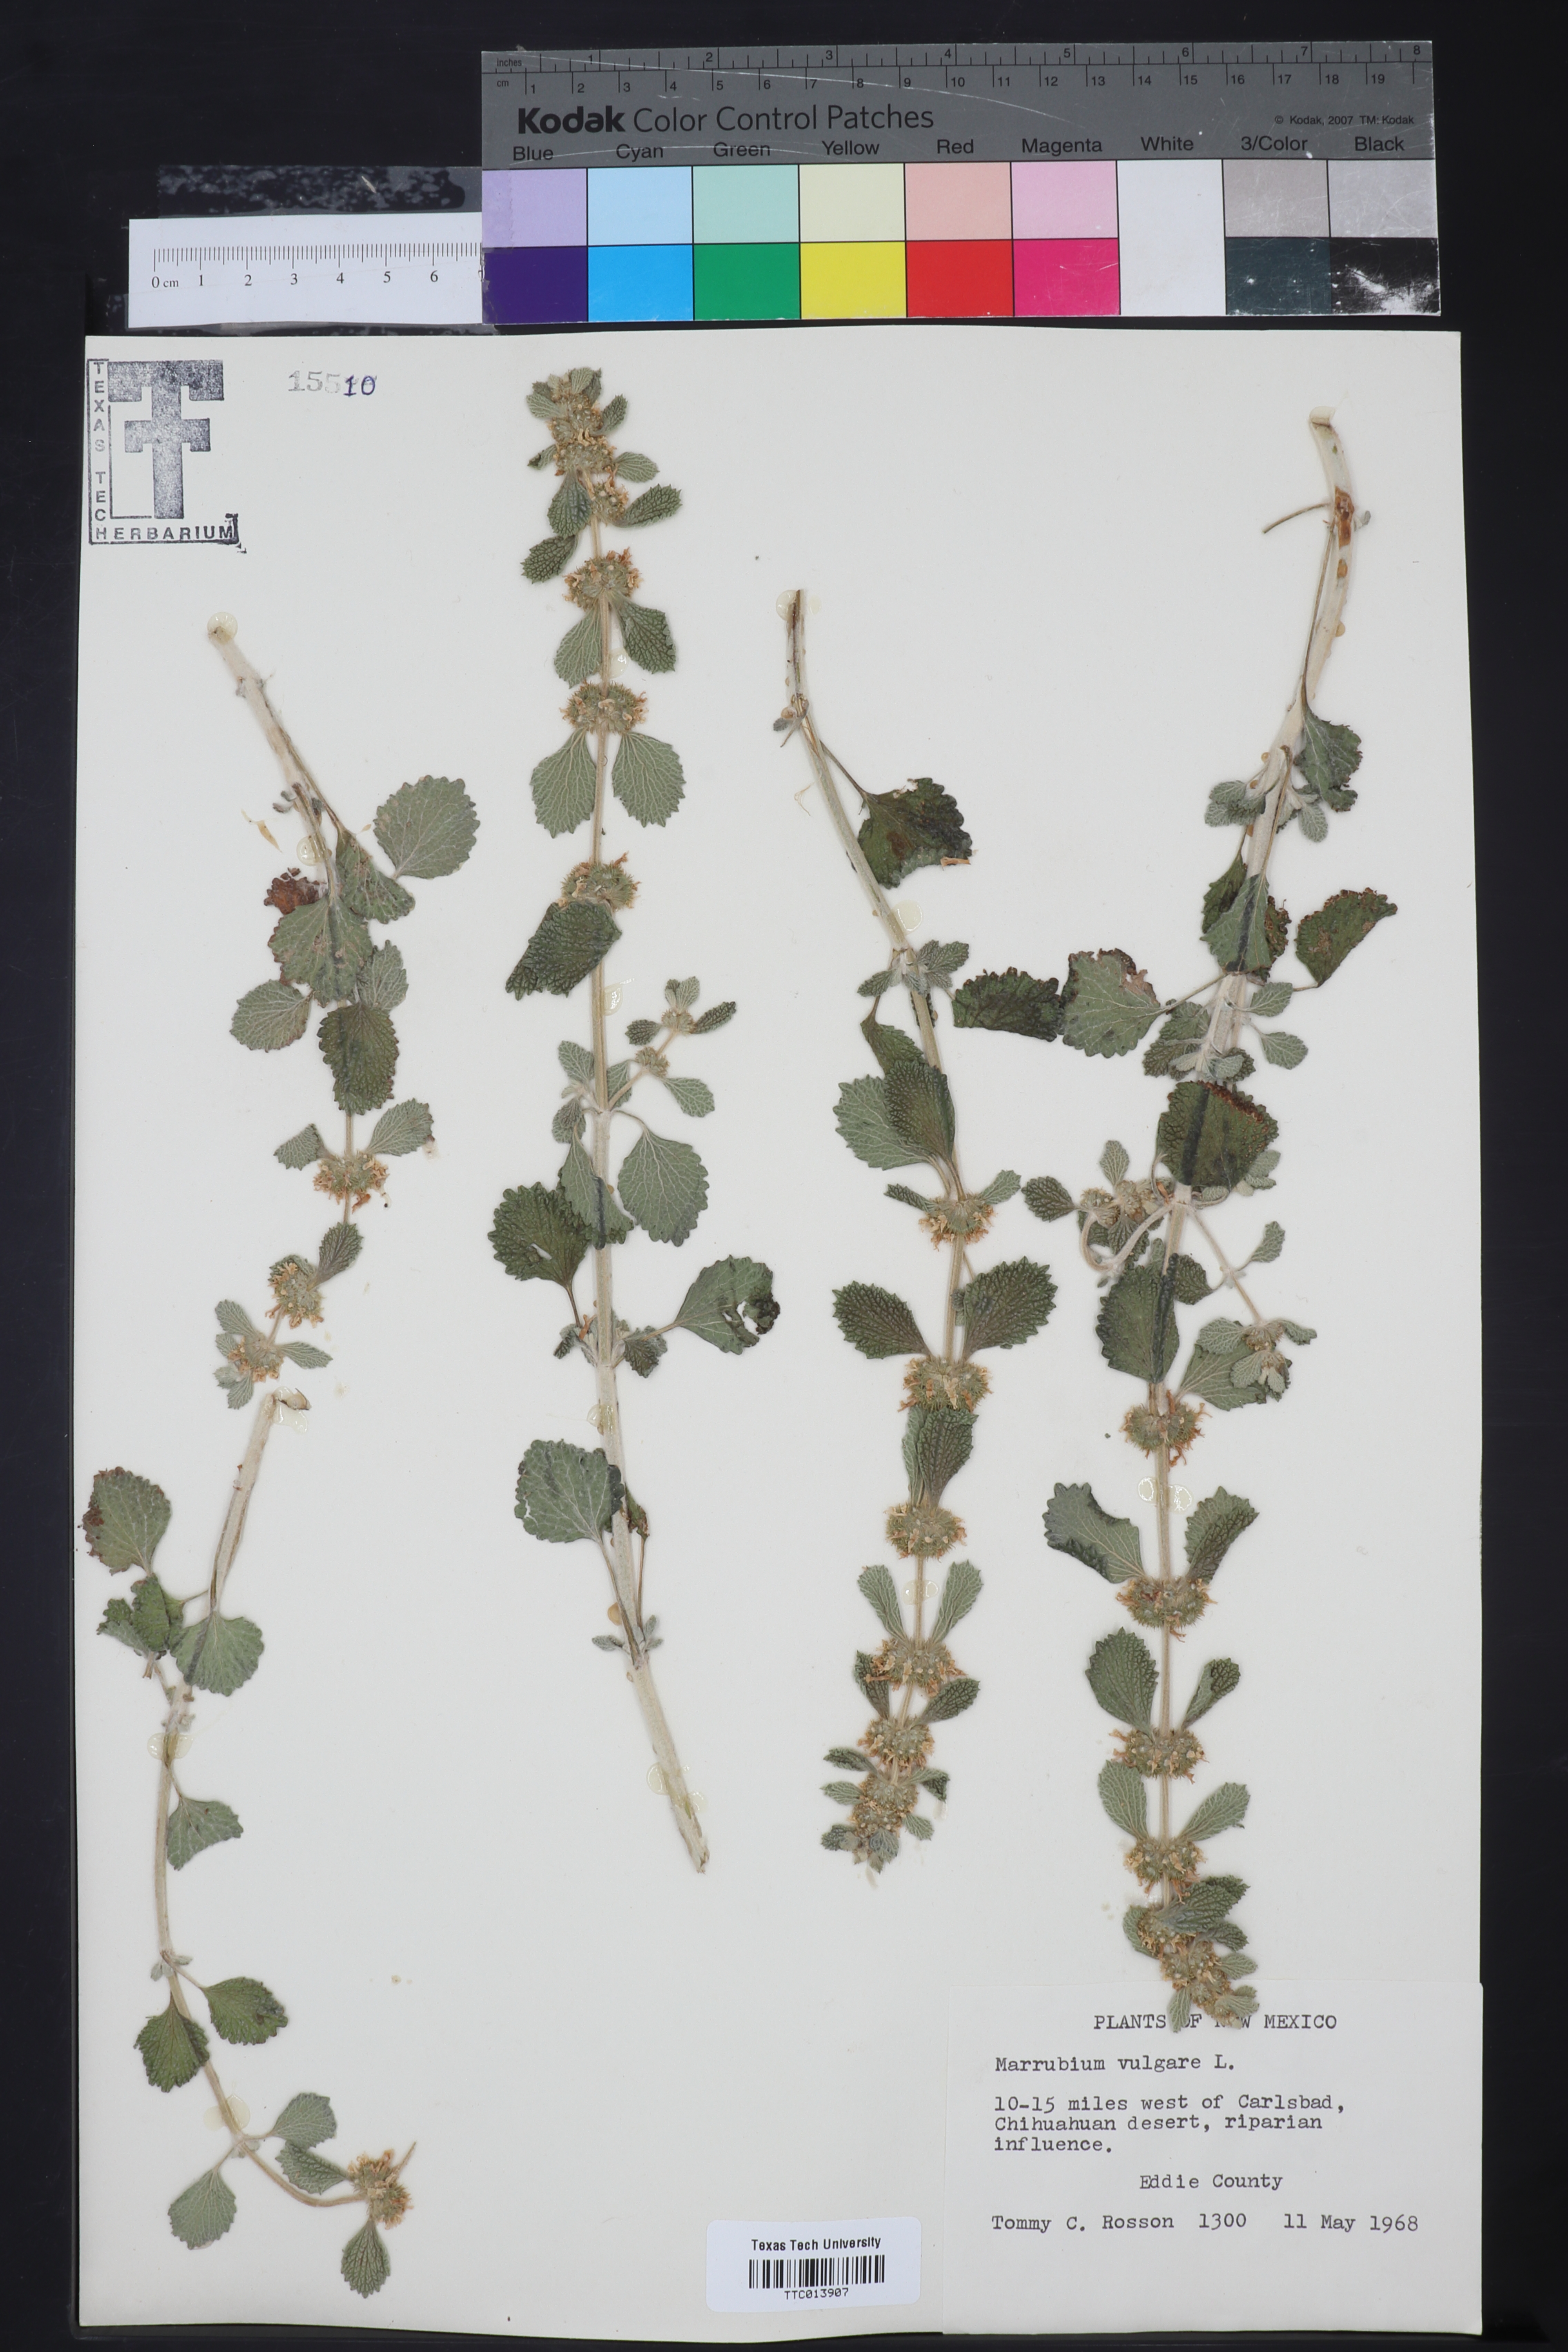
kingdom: Plantae
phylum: Tracheophyta
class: Magnoliopsida
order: Lamiales
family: Lamiaceae
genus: Marrubium
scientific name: Marrubium vulgare
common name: Horehound
